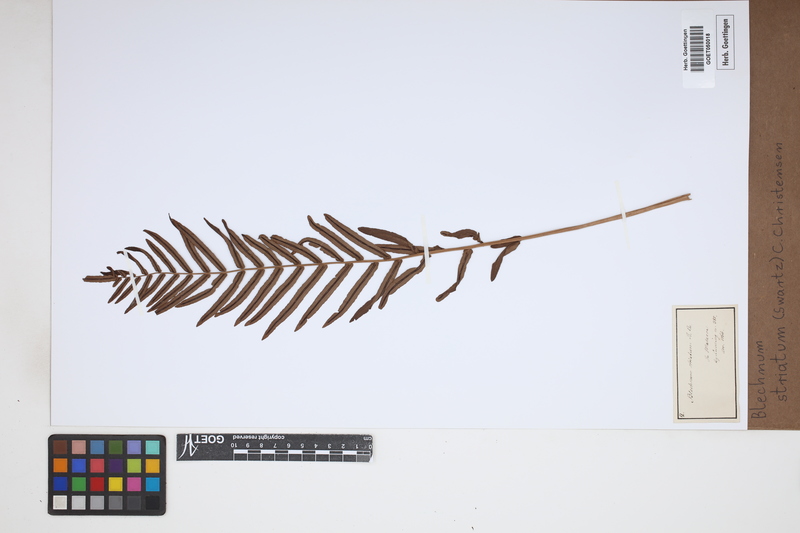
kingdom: Plantae
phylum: Tracheophyta
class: Polypodiopsida
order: Polypodiales
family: Blechnaceae
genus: Telmatoblechnum
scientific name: Telmatoblechnum indicum
